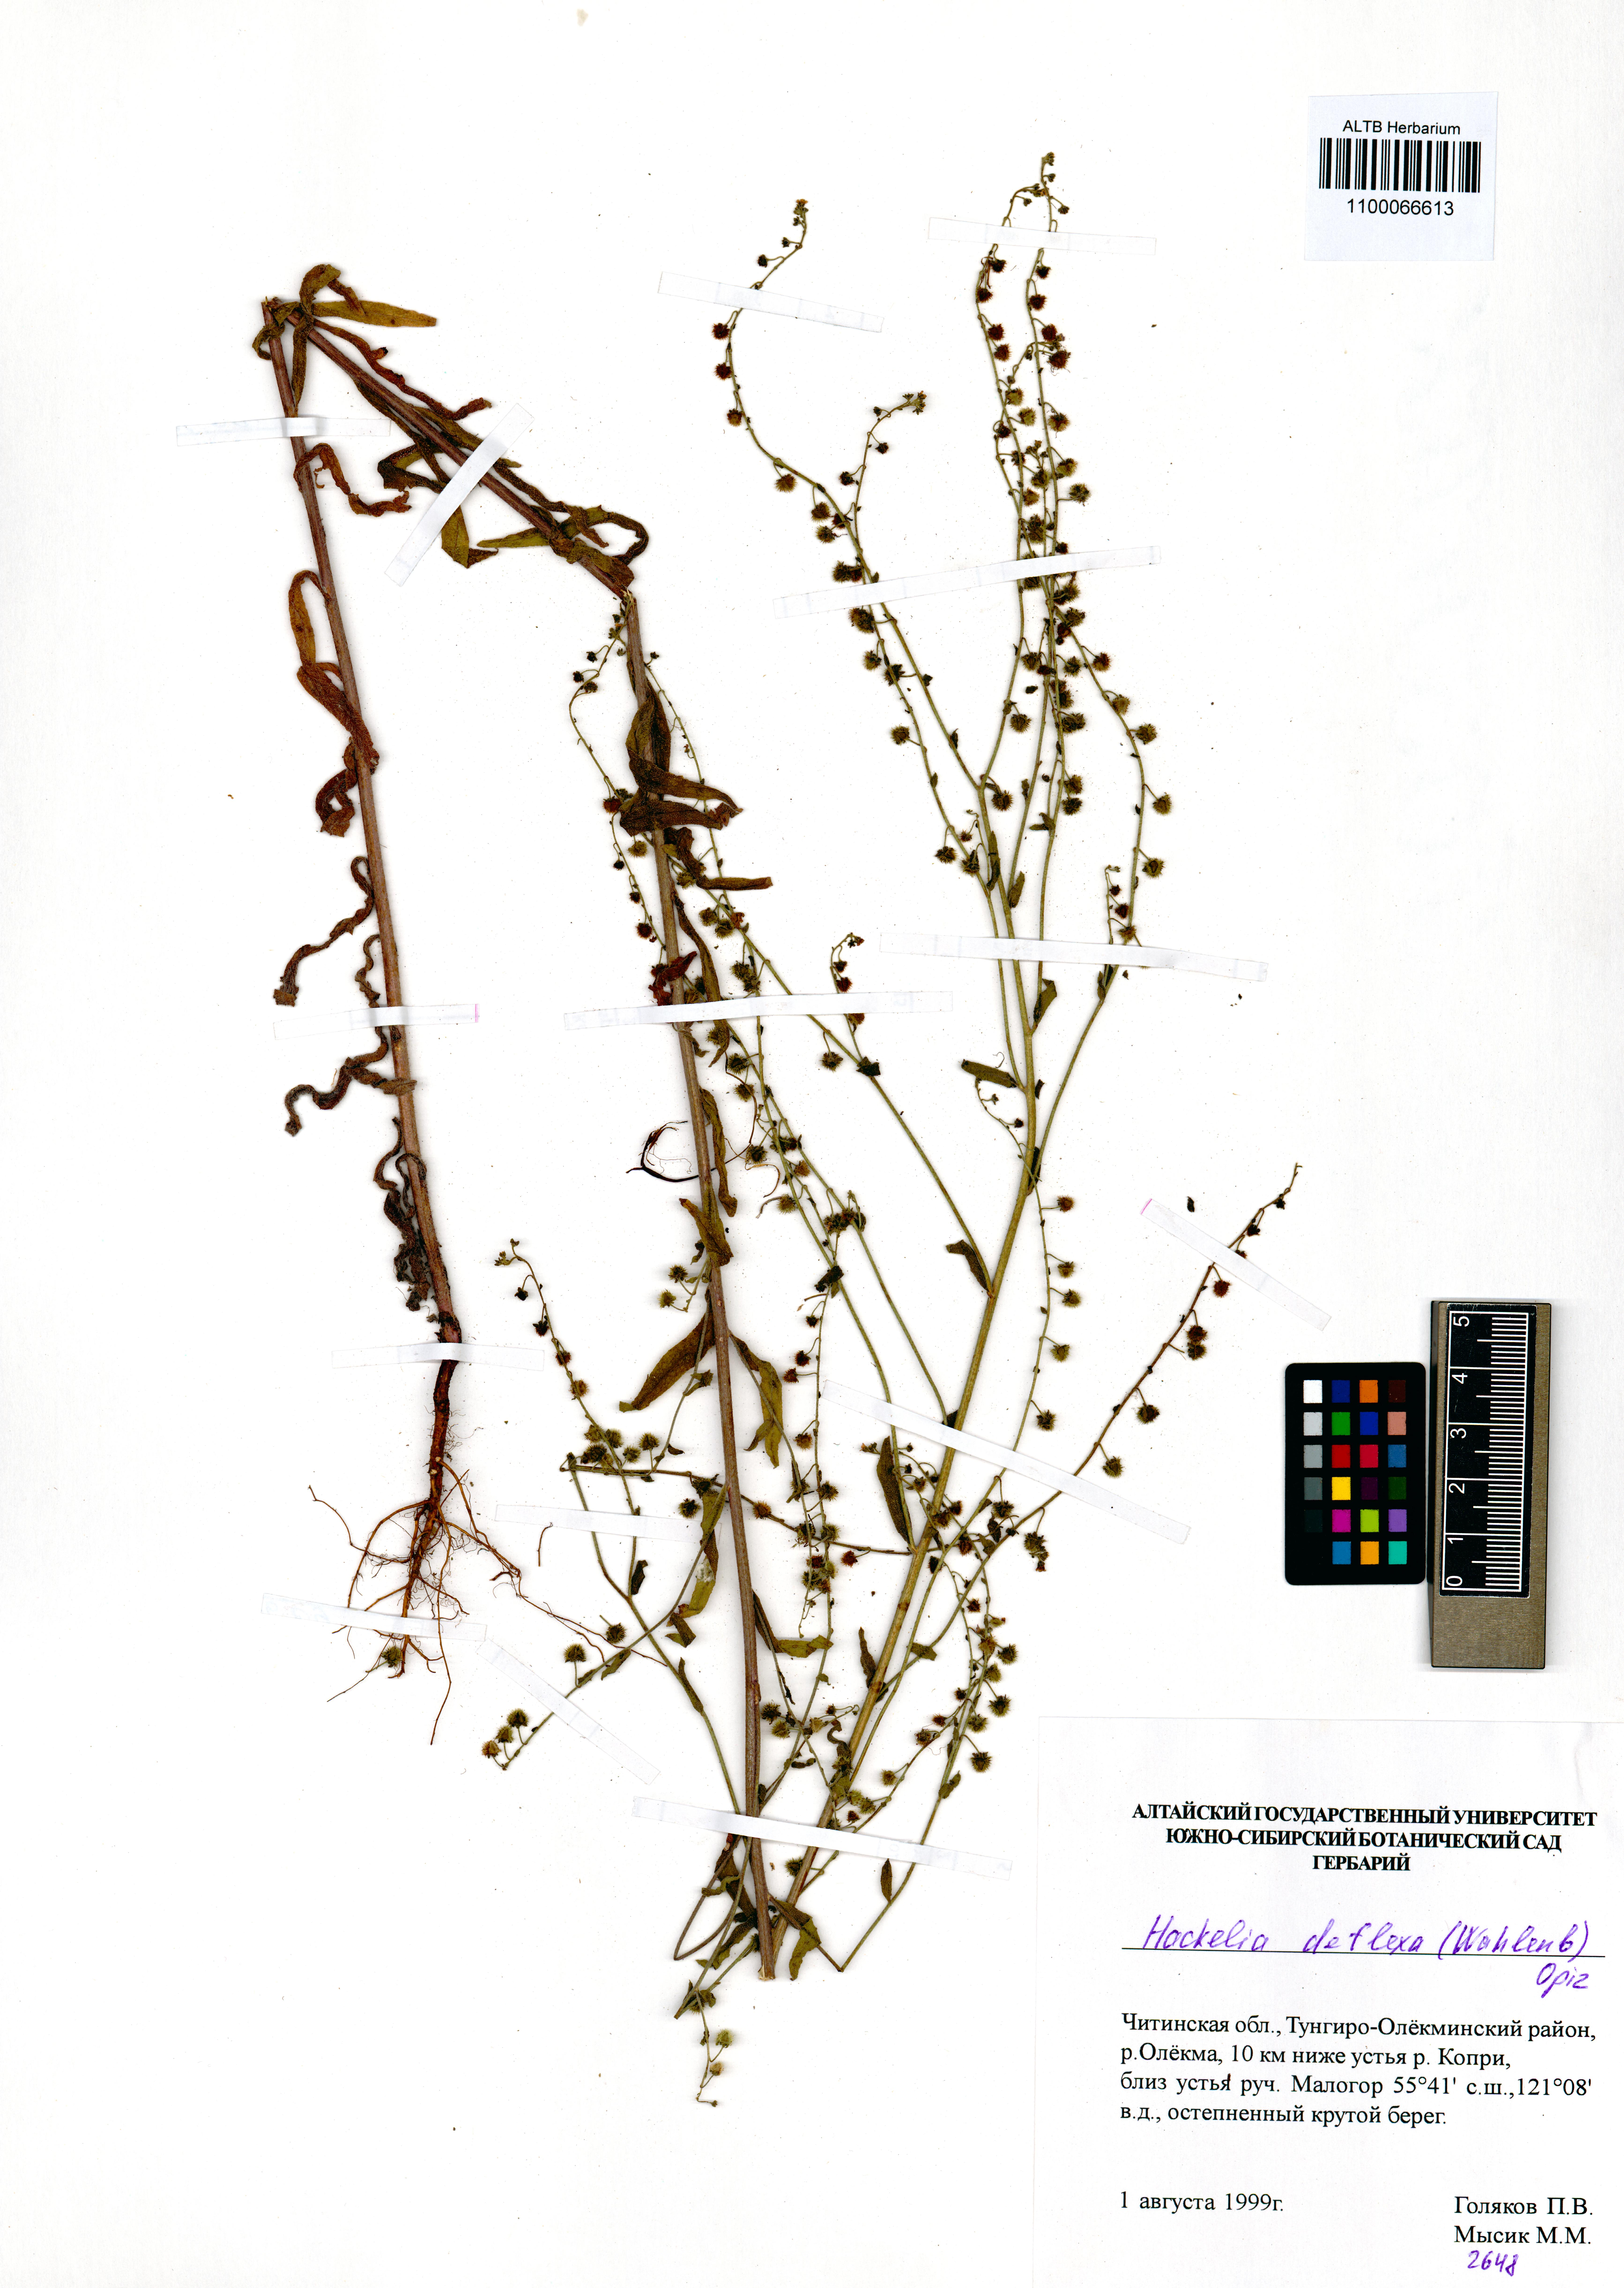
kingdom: Plantae
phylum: Tracheophyta
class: Magnoliopsida
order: Boraginales
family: Boraginaceae
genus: Hackelia
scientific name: Hackelia deflexa
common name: Nodding stickseed
